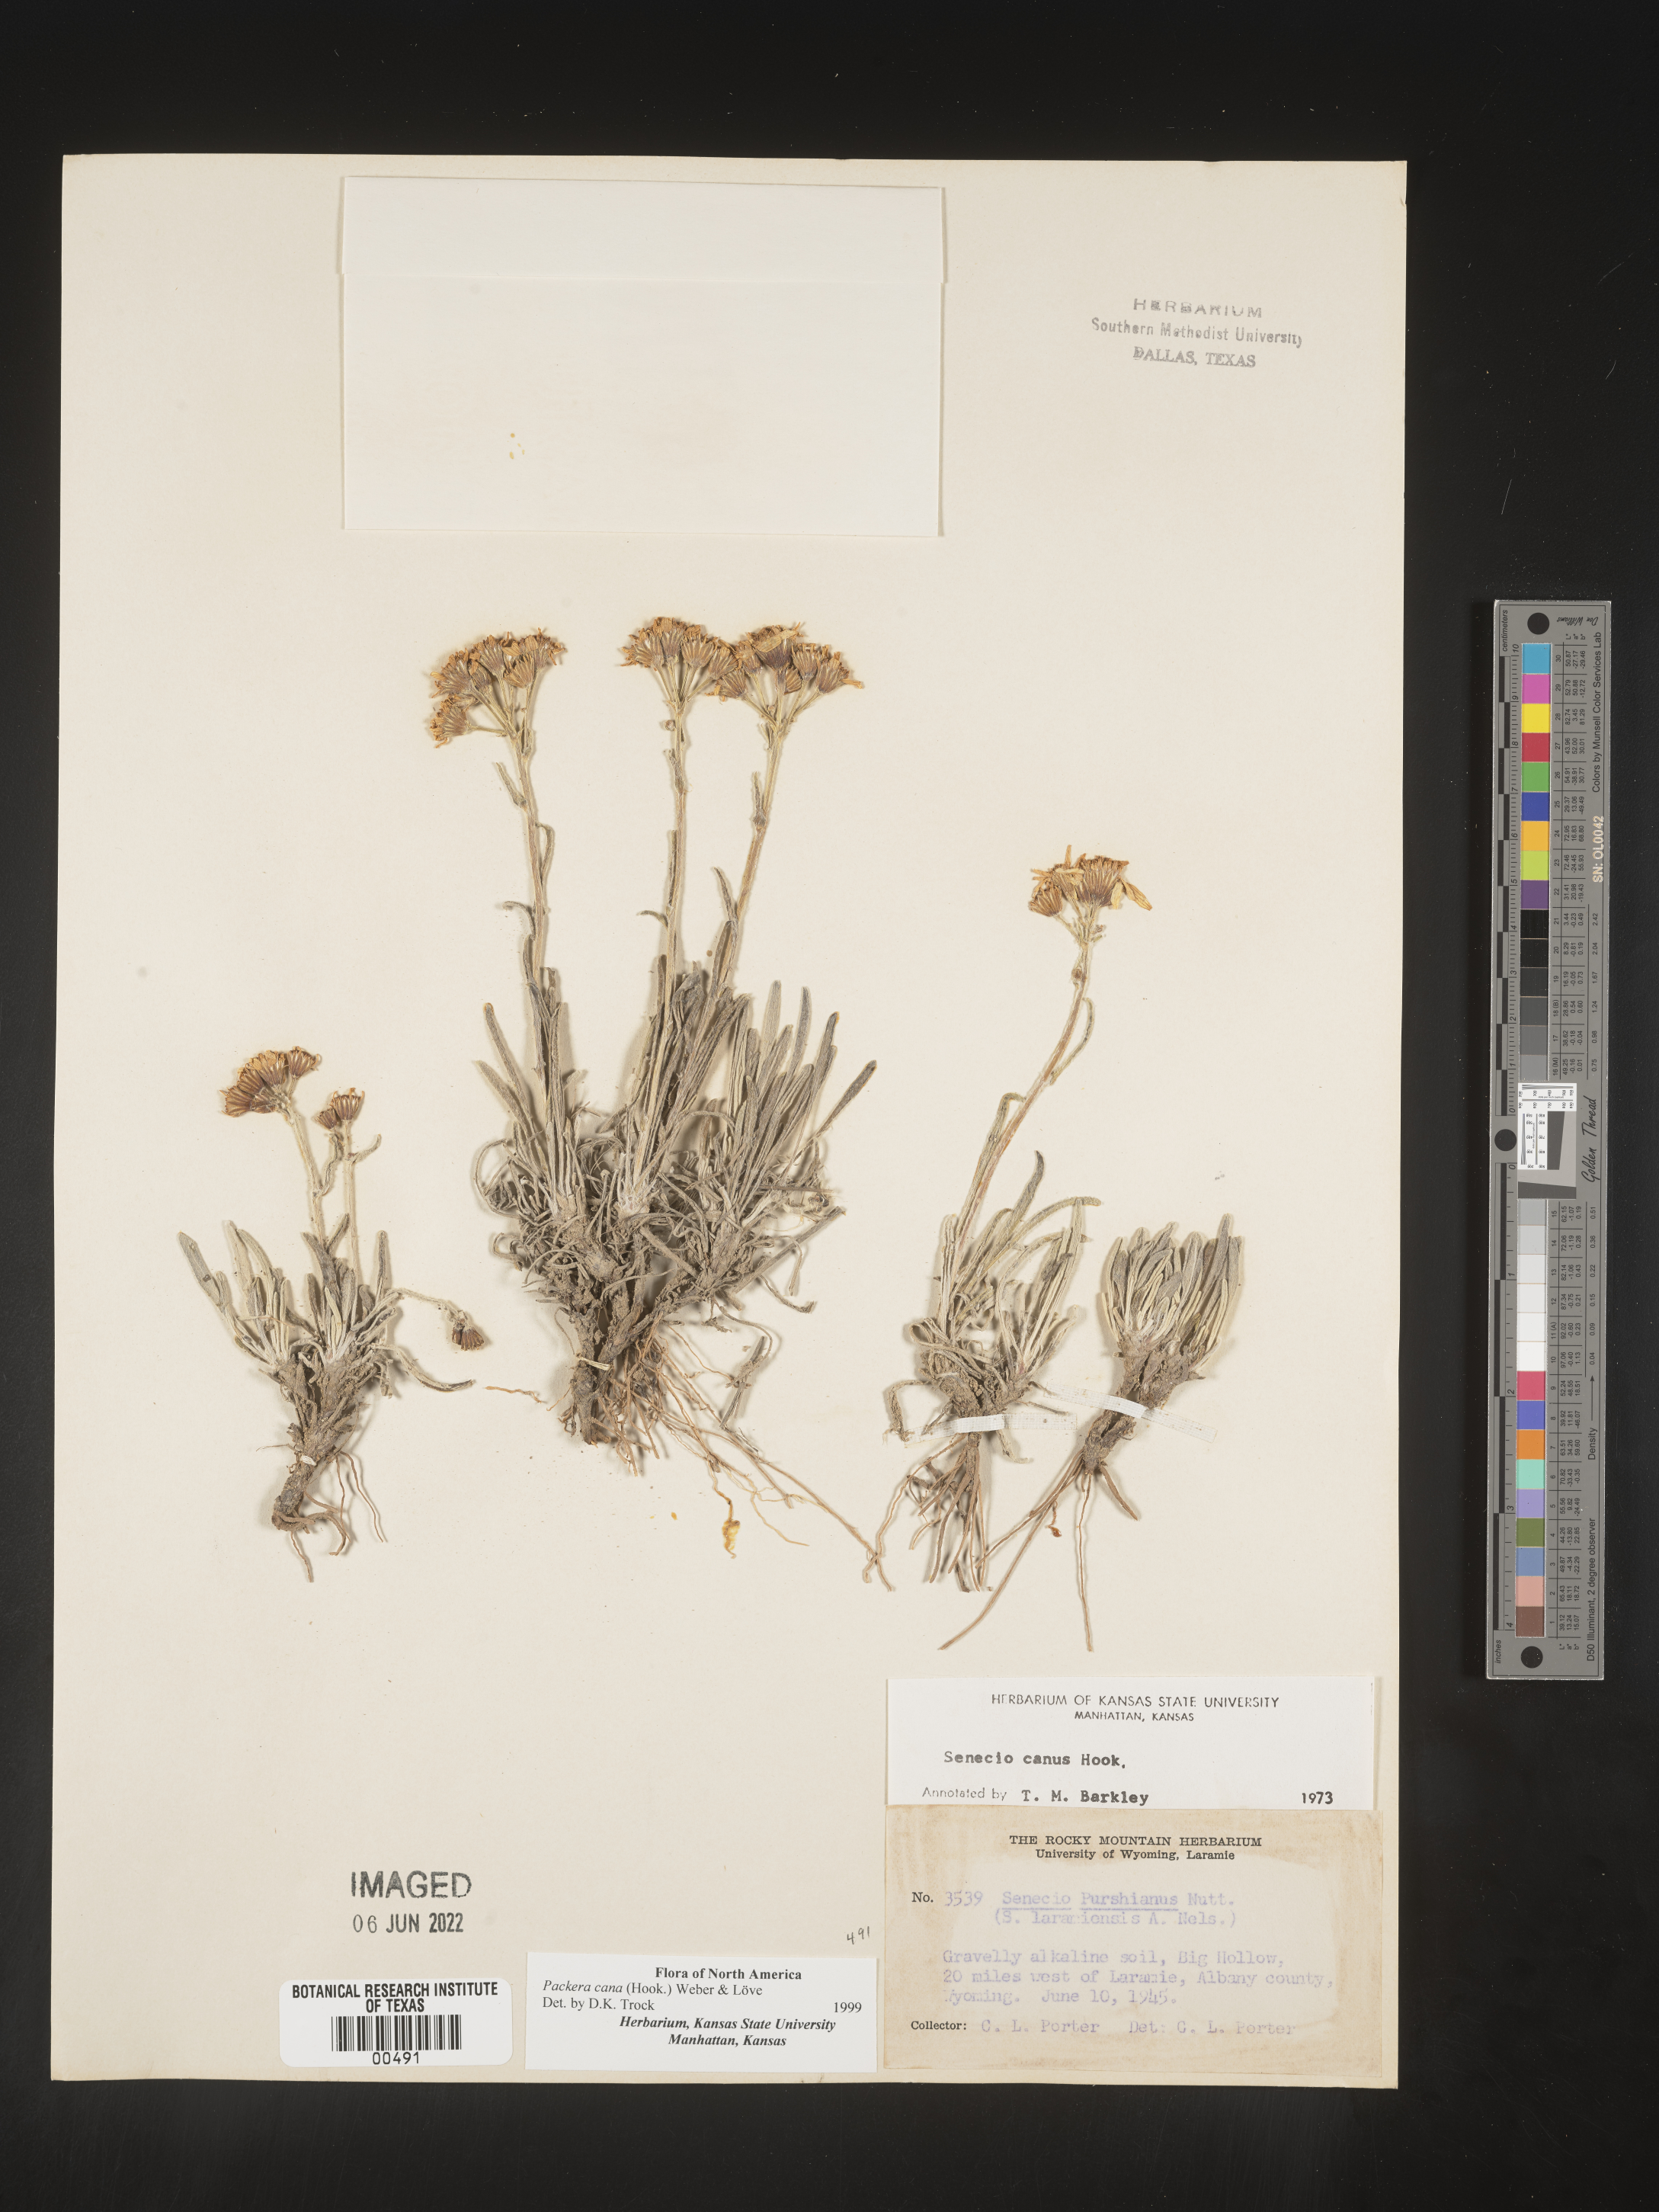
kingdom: Plantae
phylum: Tracheophyta
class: Magnoliopsida
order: Asterales
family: Asteraceae
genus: Packera
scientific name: Packera cana
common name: Woolly groundsel
